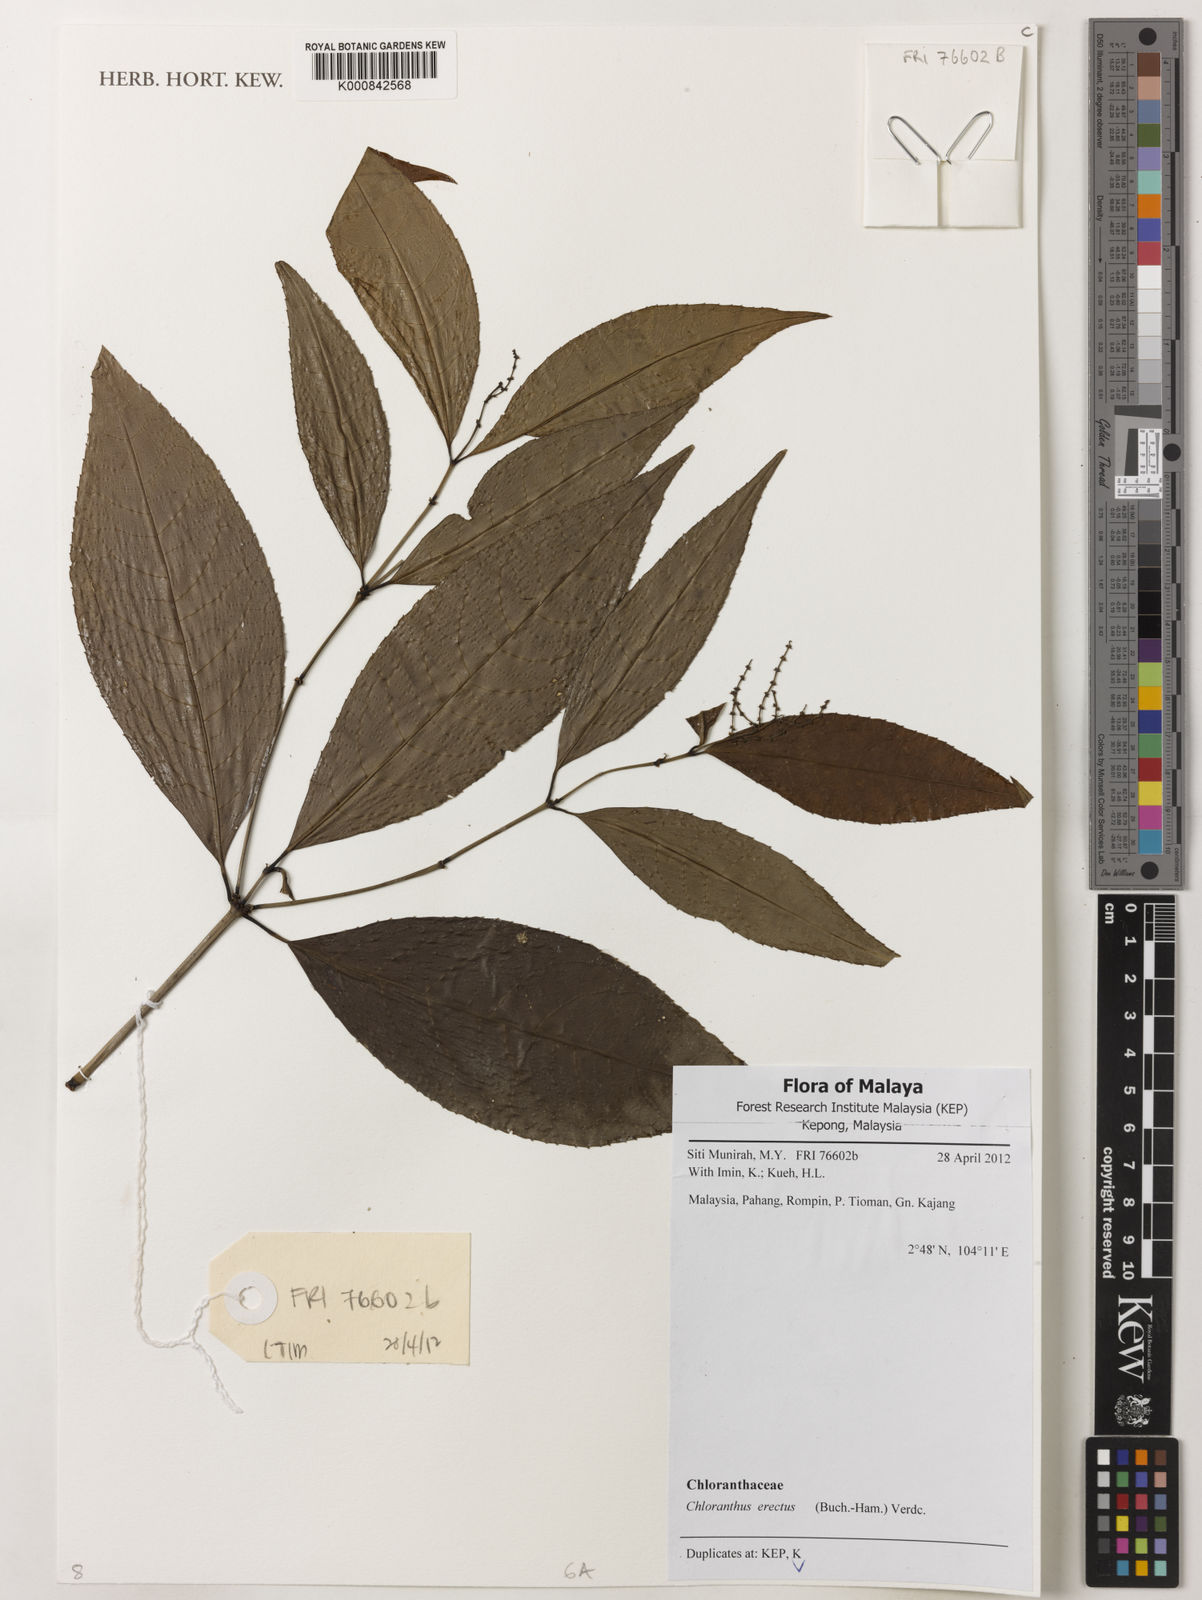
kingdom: Plantae
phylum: Tracheophyta
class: Magnoliopsida
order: Chloranthales
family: Chloranthaceae
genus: Chloranthus
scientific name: Chloranthus
